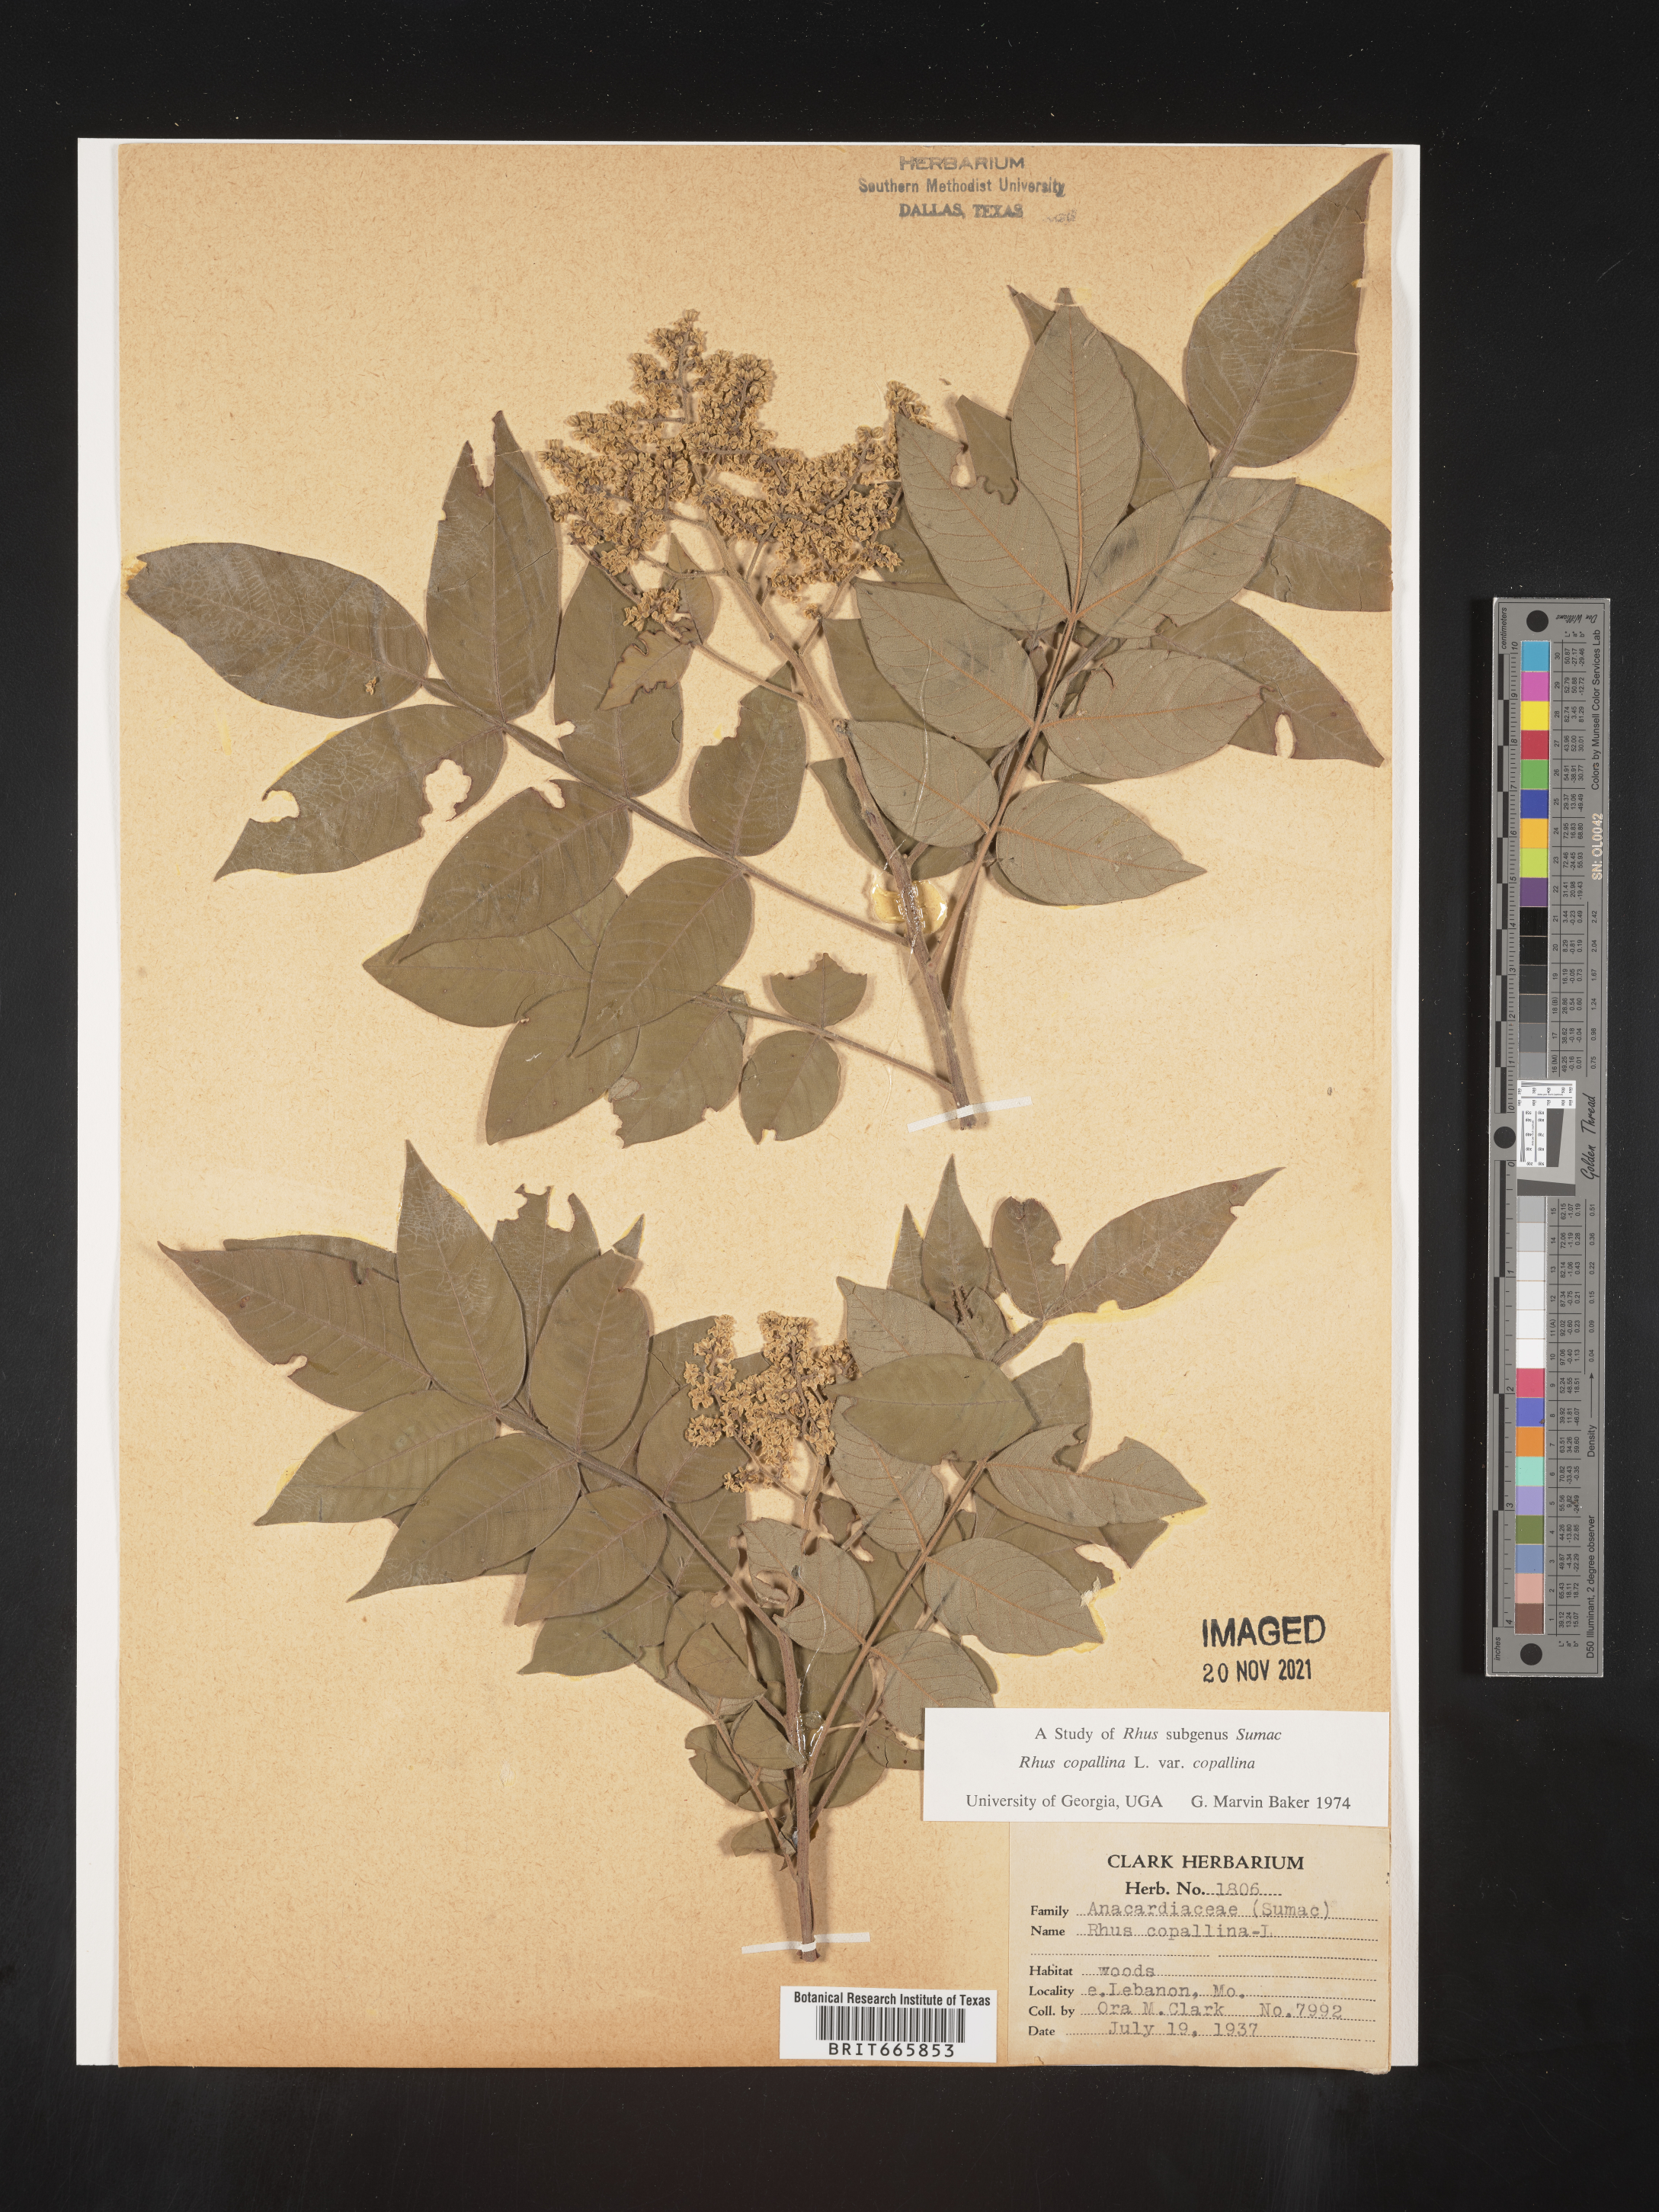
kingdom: Plantae
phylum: Tracheophyta
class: Magnoliopsida
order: Sapindales
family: Anacardiaceae
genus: Rhus
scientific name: Rhus copallina
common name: Shining sumac
